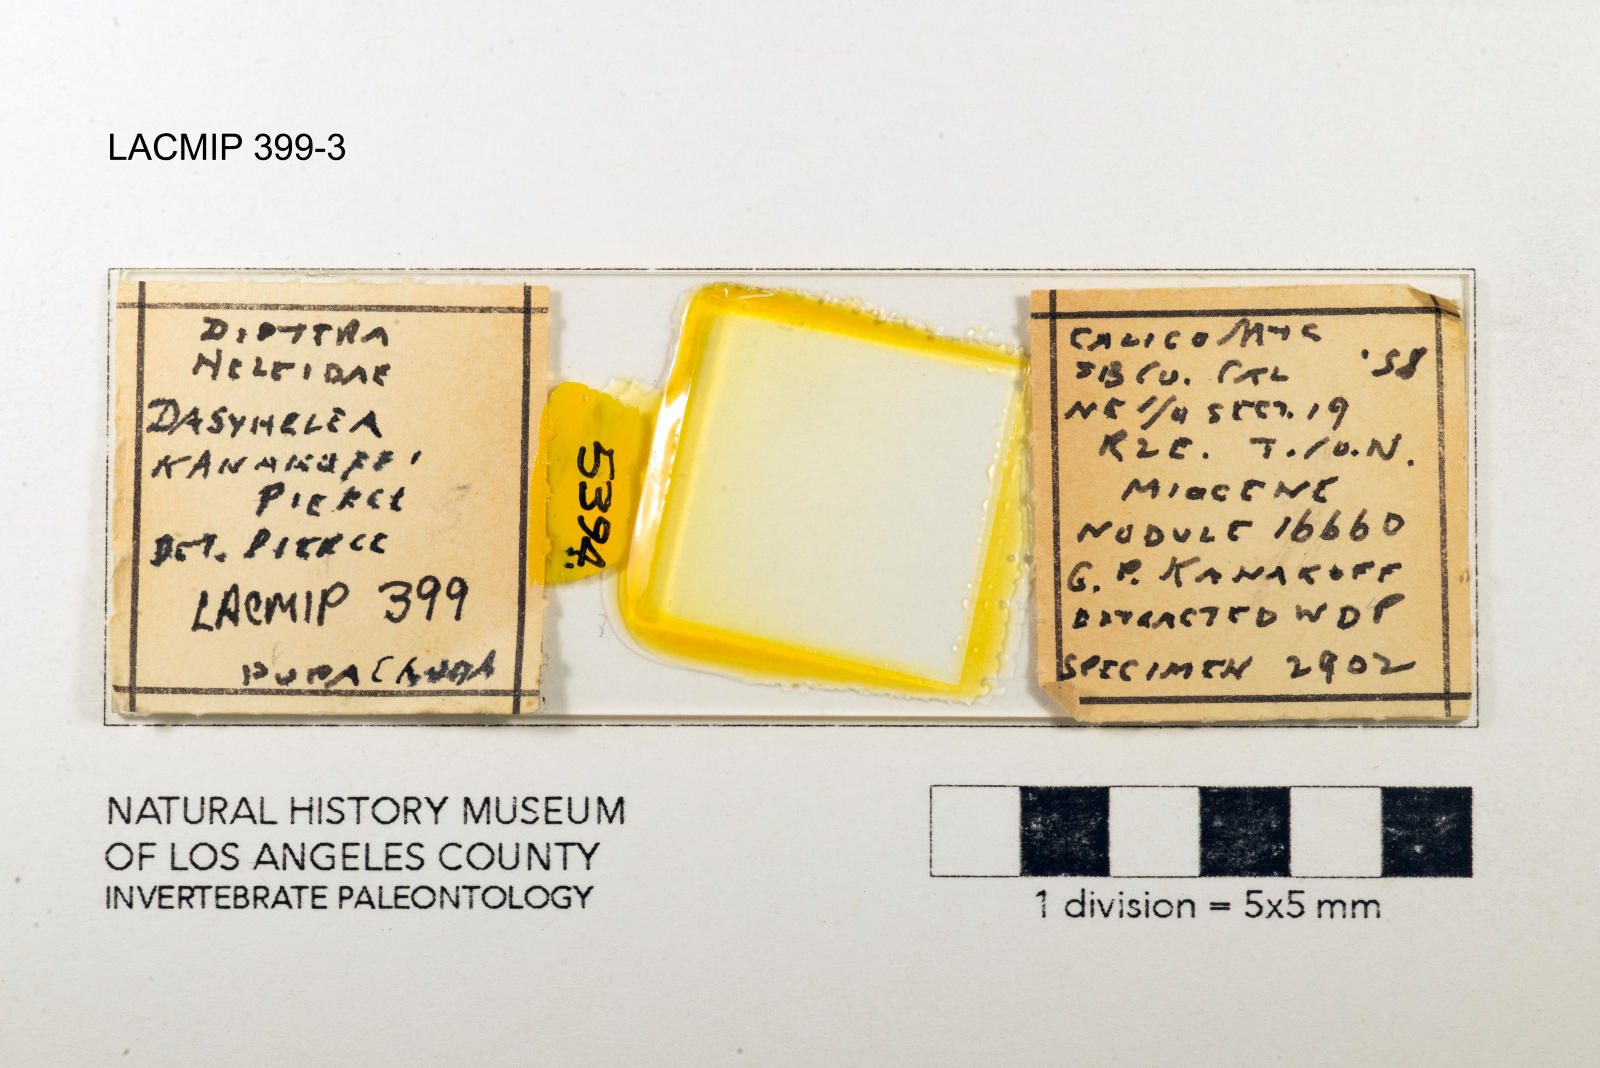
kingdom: Animalia
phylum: Arthropoda
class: Insecta
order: Diptera
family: Ceratopogonidae
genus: Dasyhelea
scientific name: Dasyhelea kanakoffi
